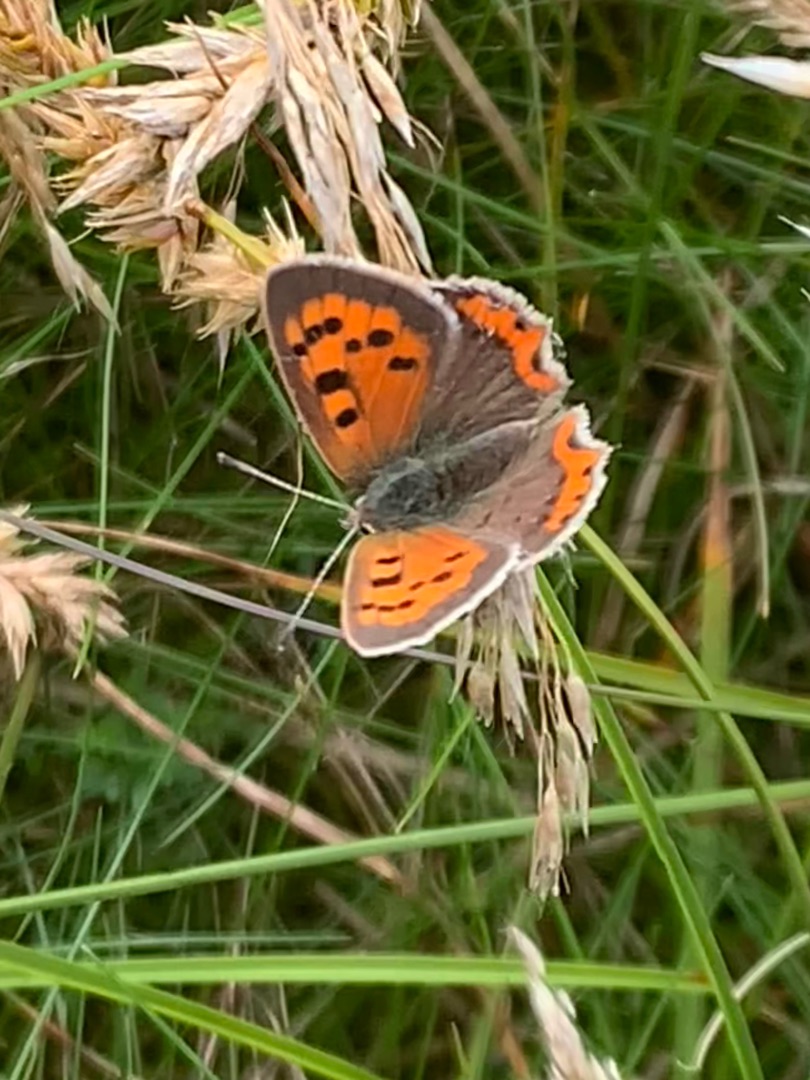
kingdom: Animalia
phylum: Arthropoda
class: Insecta
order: Lepidoptera
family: Lycaenidae
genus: Lycaena
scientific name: Lycaena phlaeas
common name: Lille ildfugl
